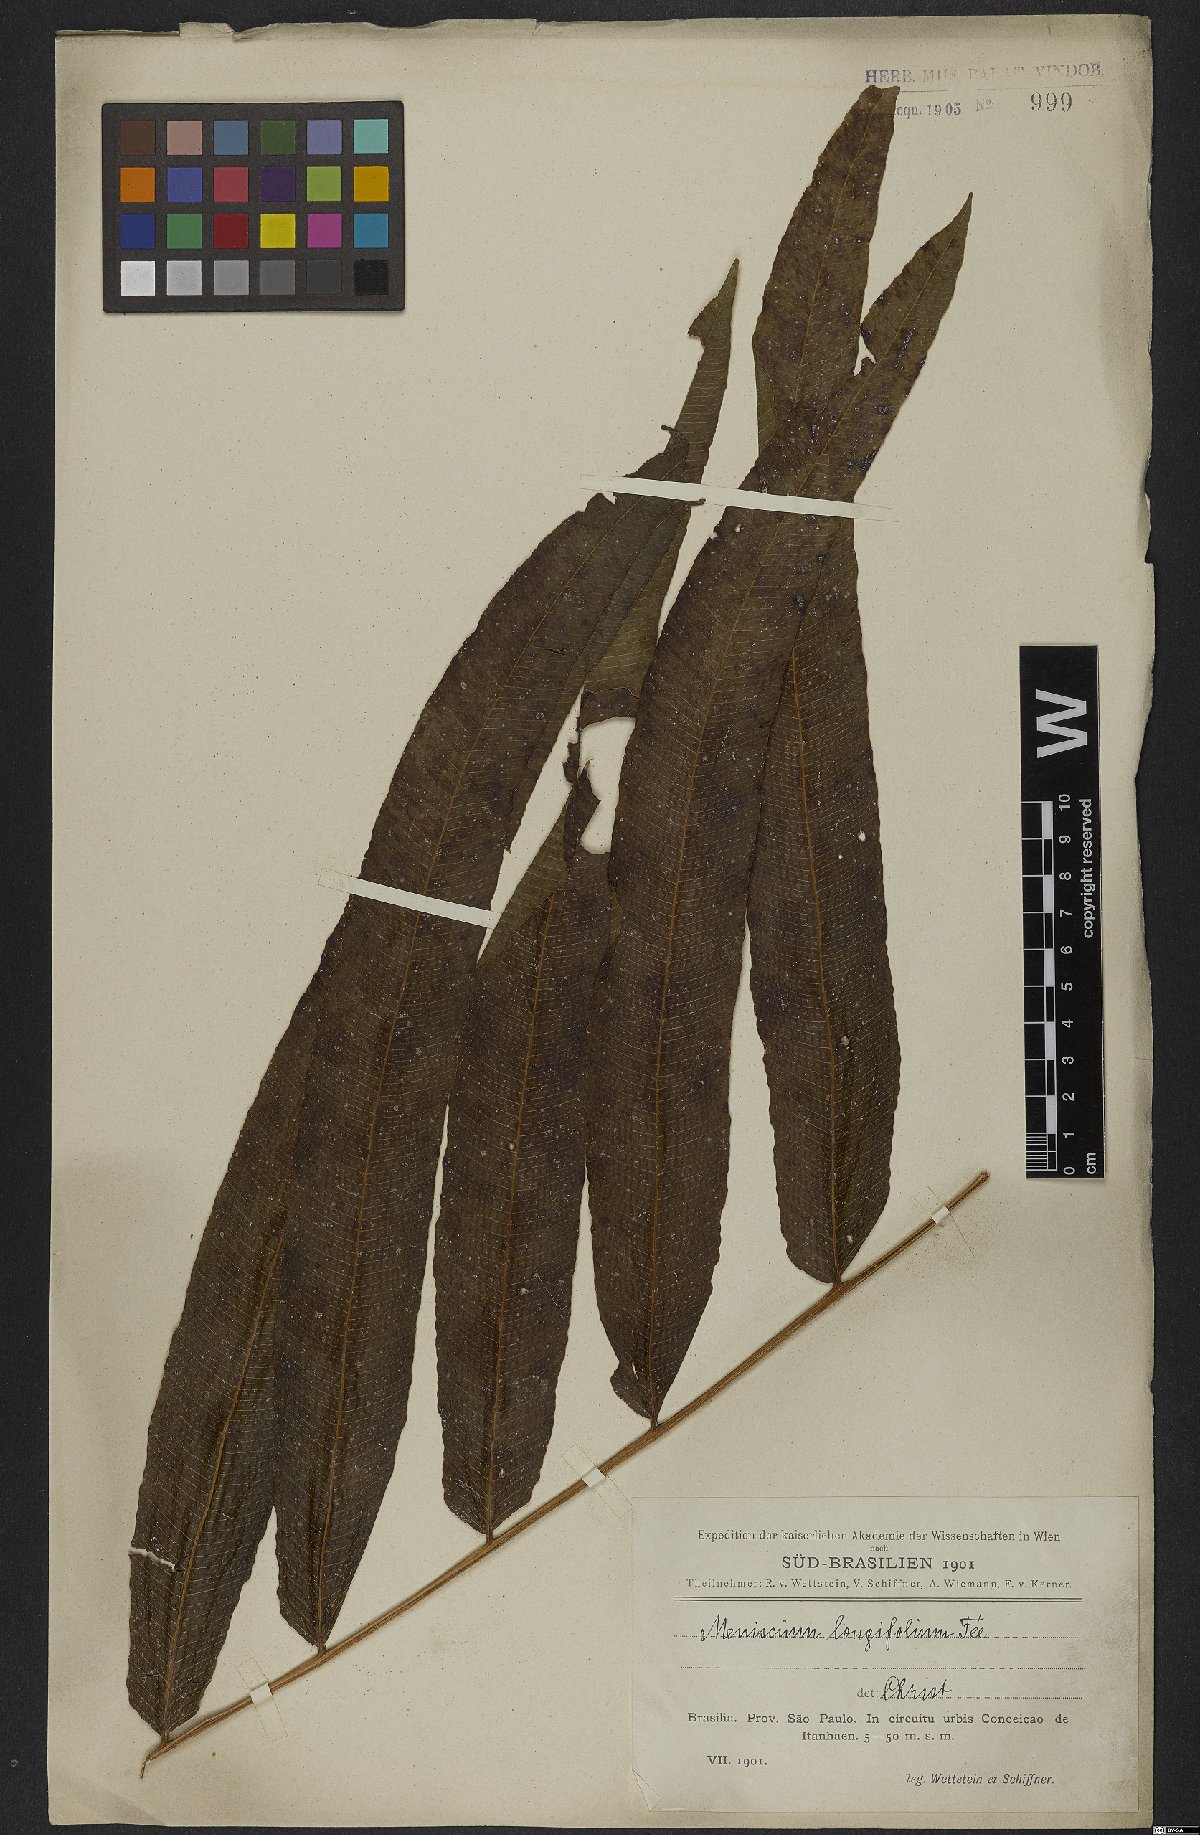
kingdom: Plantae
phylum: Tracheophyta
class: Polypodiopsida
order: Polypodiales
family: Thelypteridaceae
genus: Meniscium
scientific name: Meniscium reticulatum
